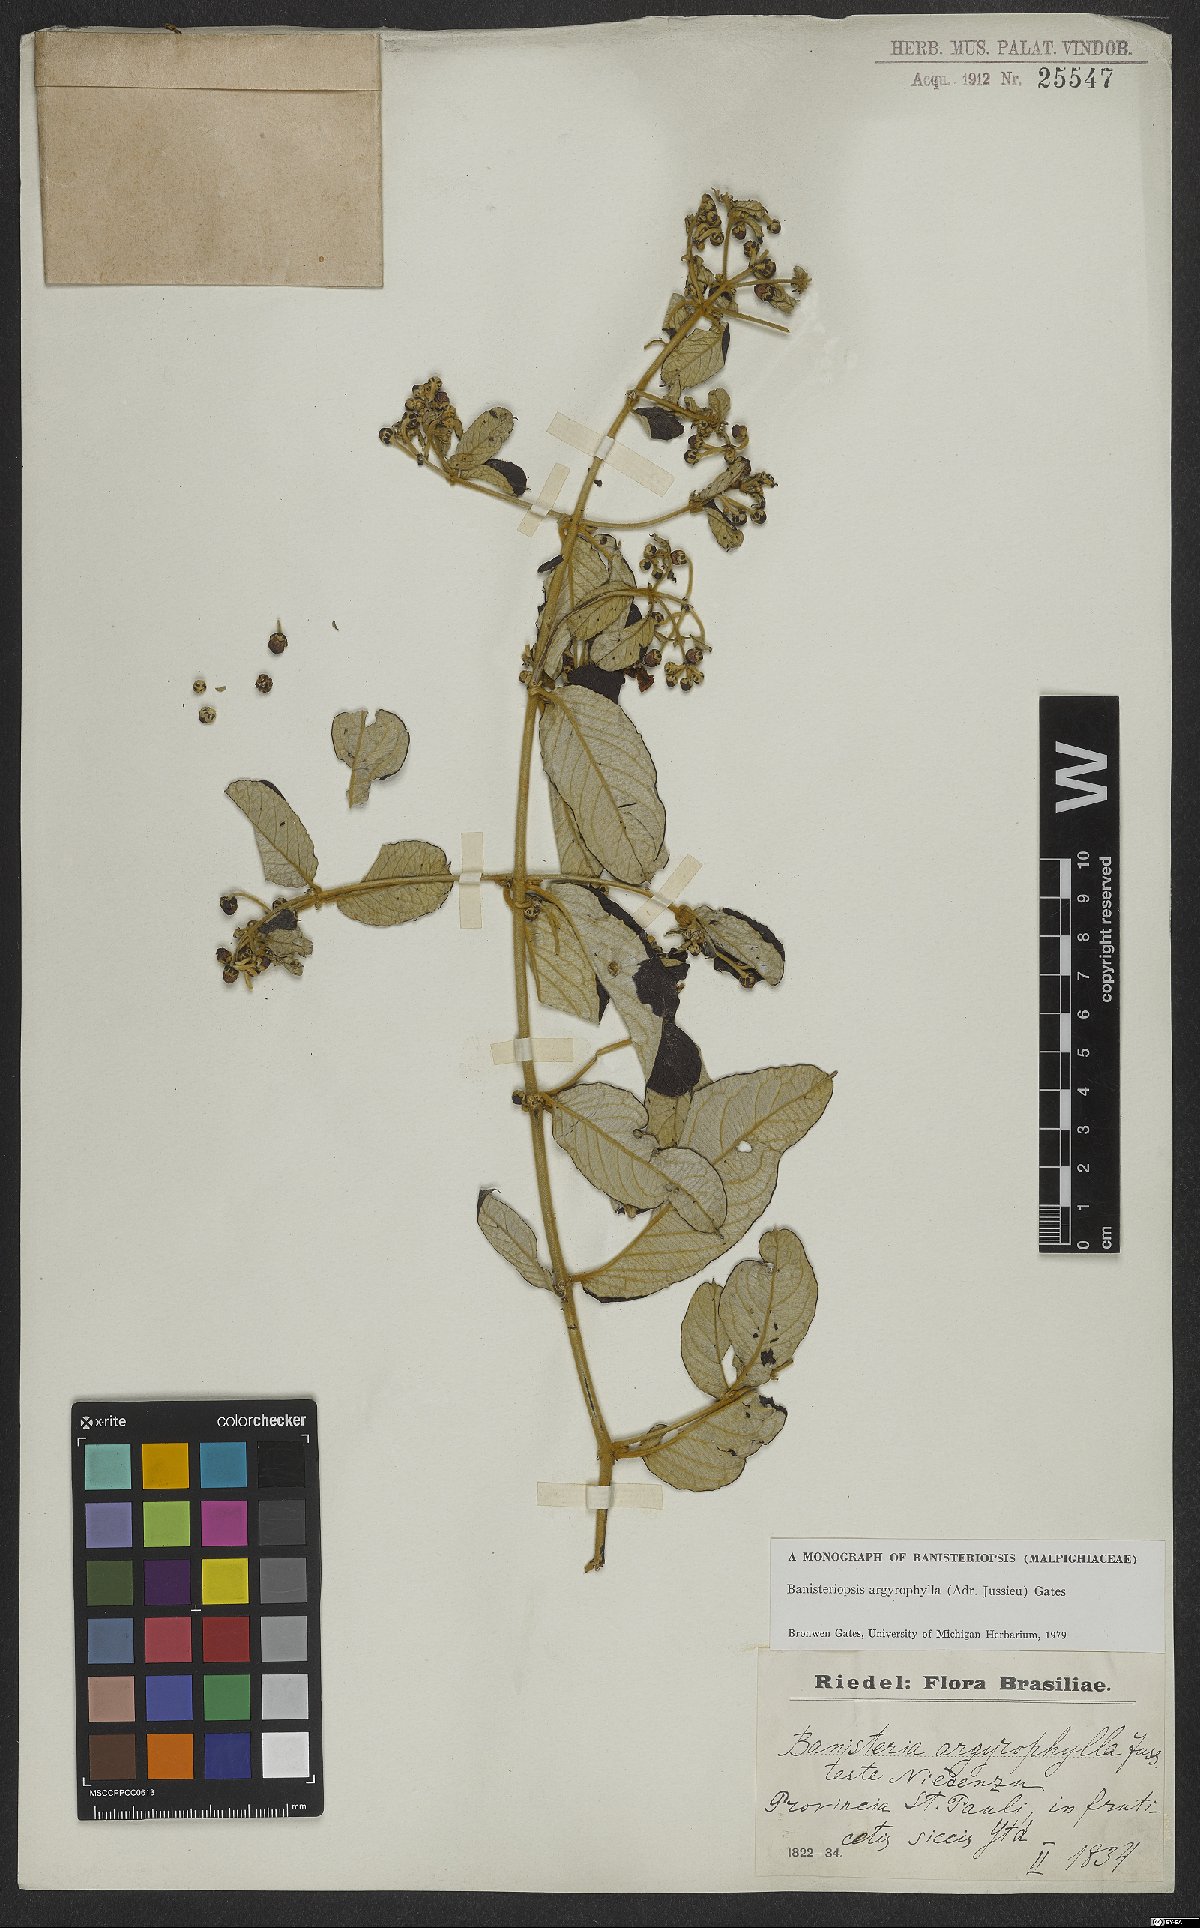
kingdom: Plantae
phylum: Tracheophyta
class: Magnoliopsida
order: Malpighiales
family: Malpighiaceae
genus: Banisteriopsis
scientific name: Banisteriopsis argyrophylla
